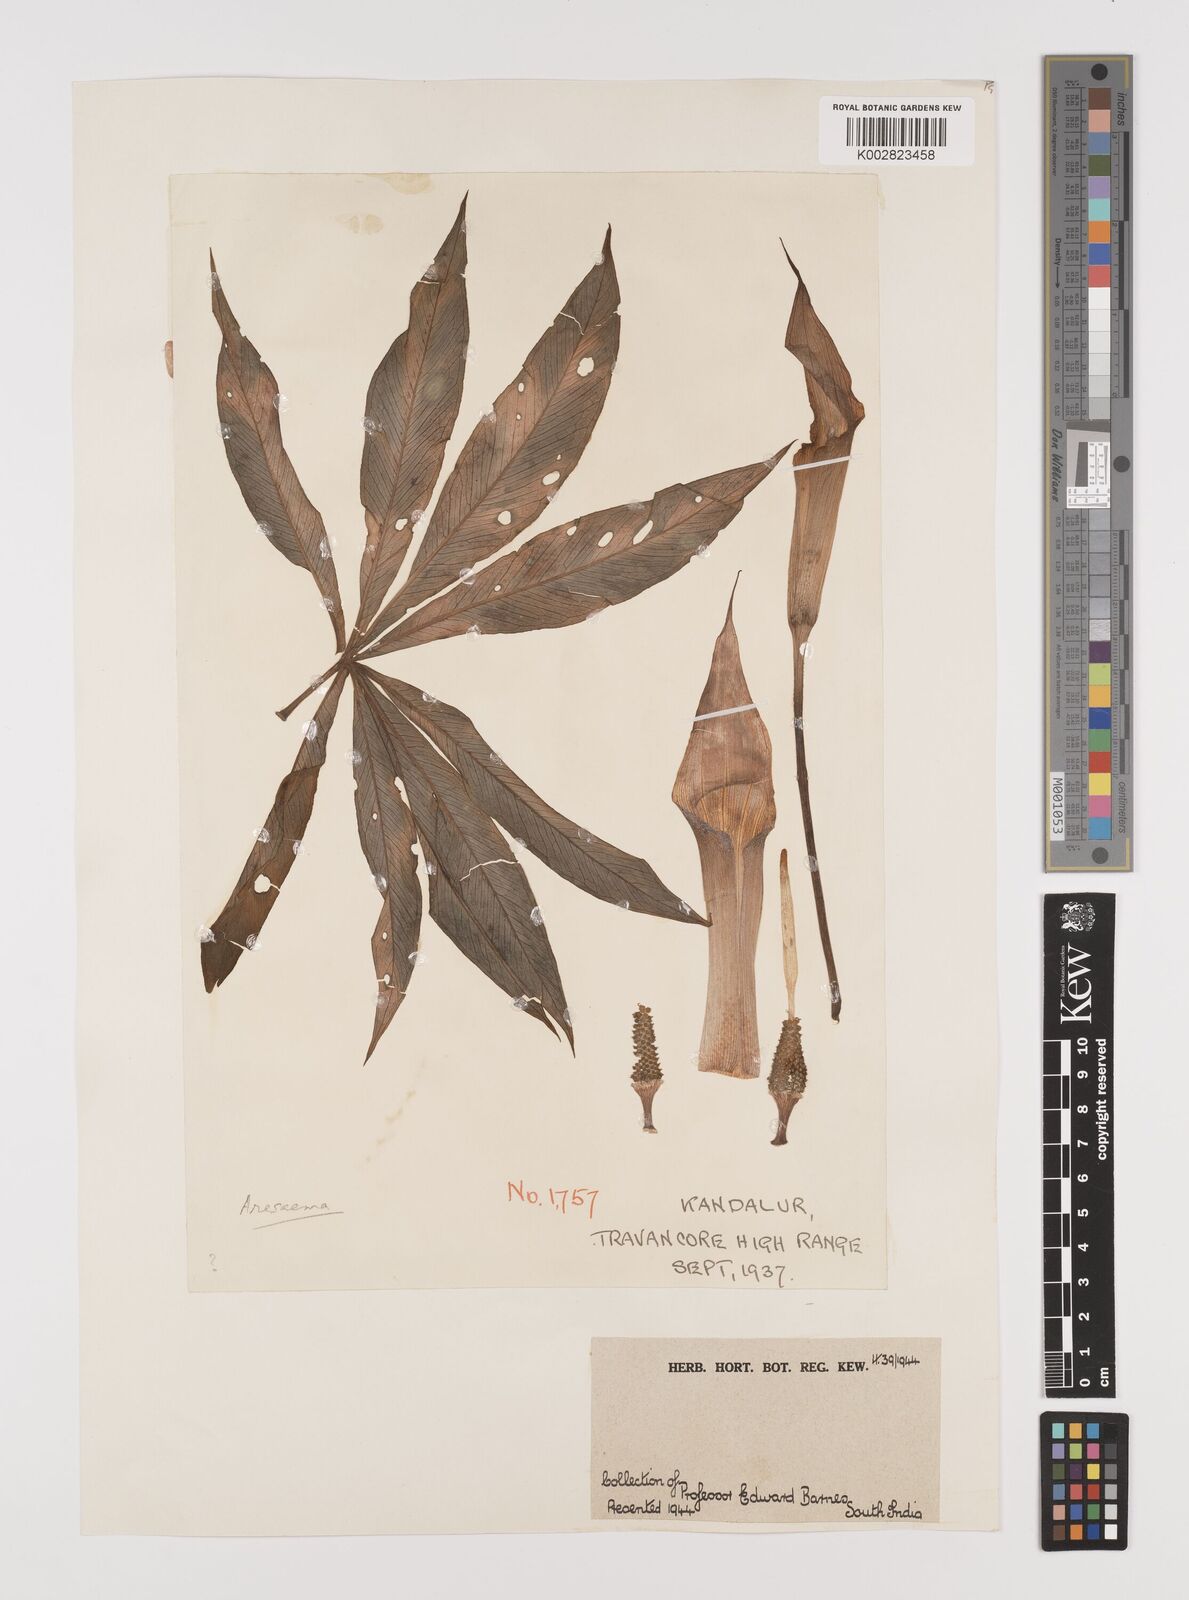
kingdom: Plantae
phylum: Tracheophyta
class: Liliopsida
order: Alismatales
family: Araceae
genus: Arisaema
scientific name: Arisaema
